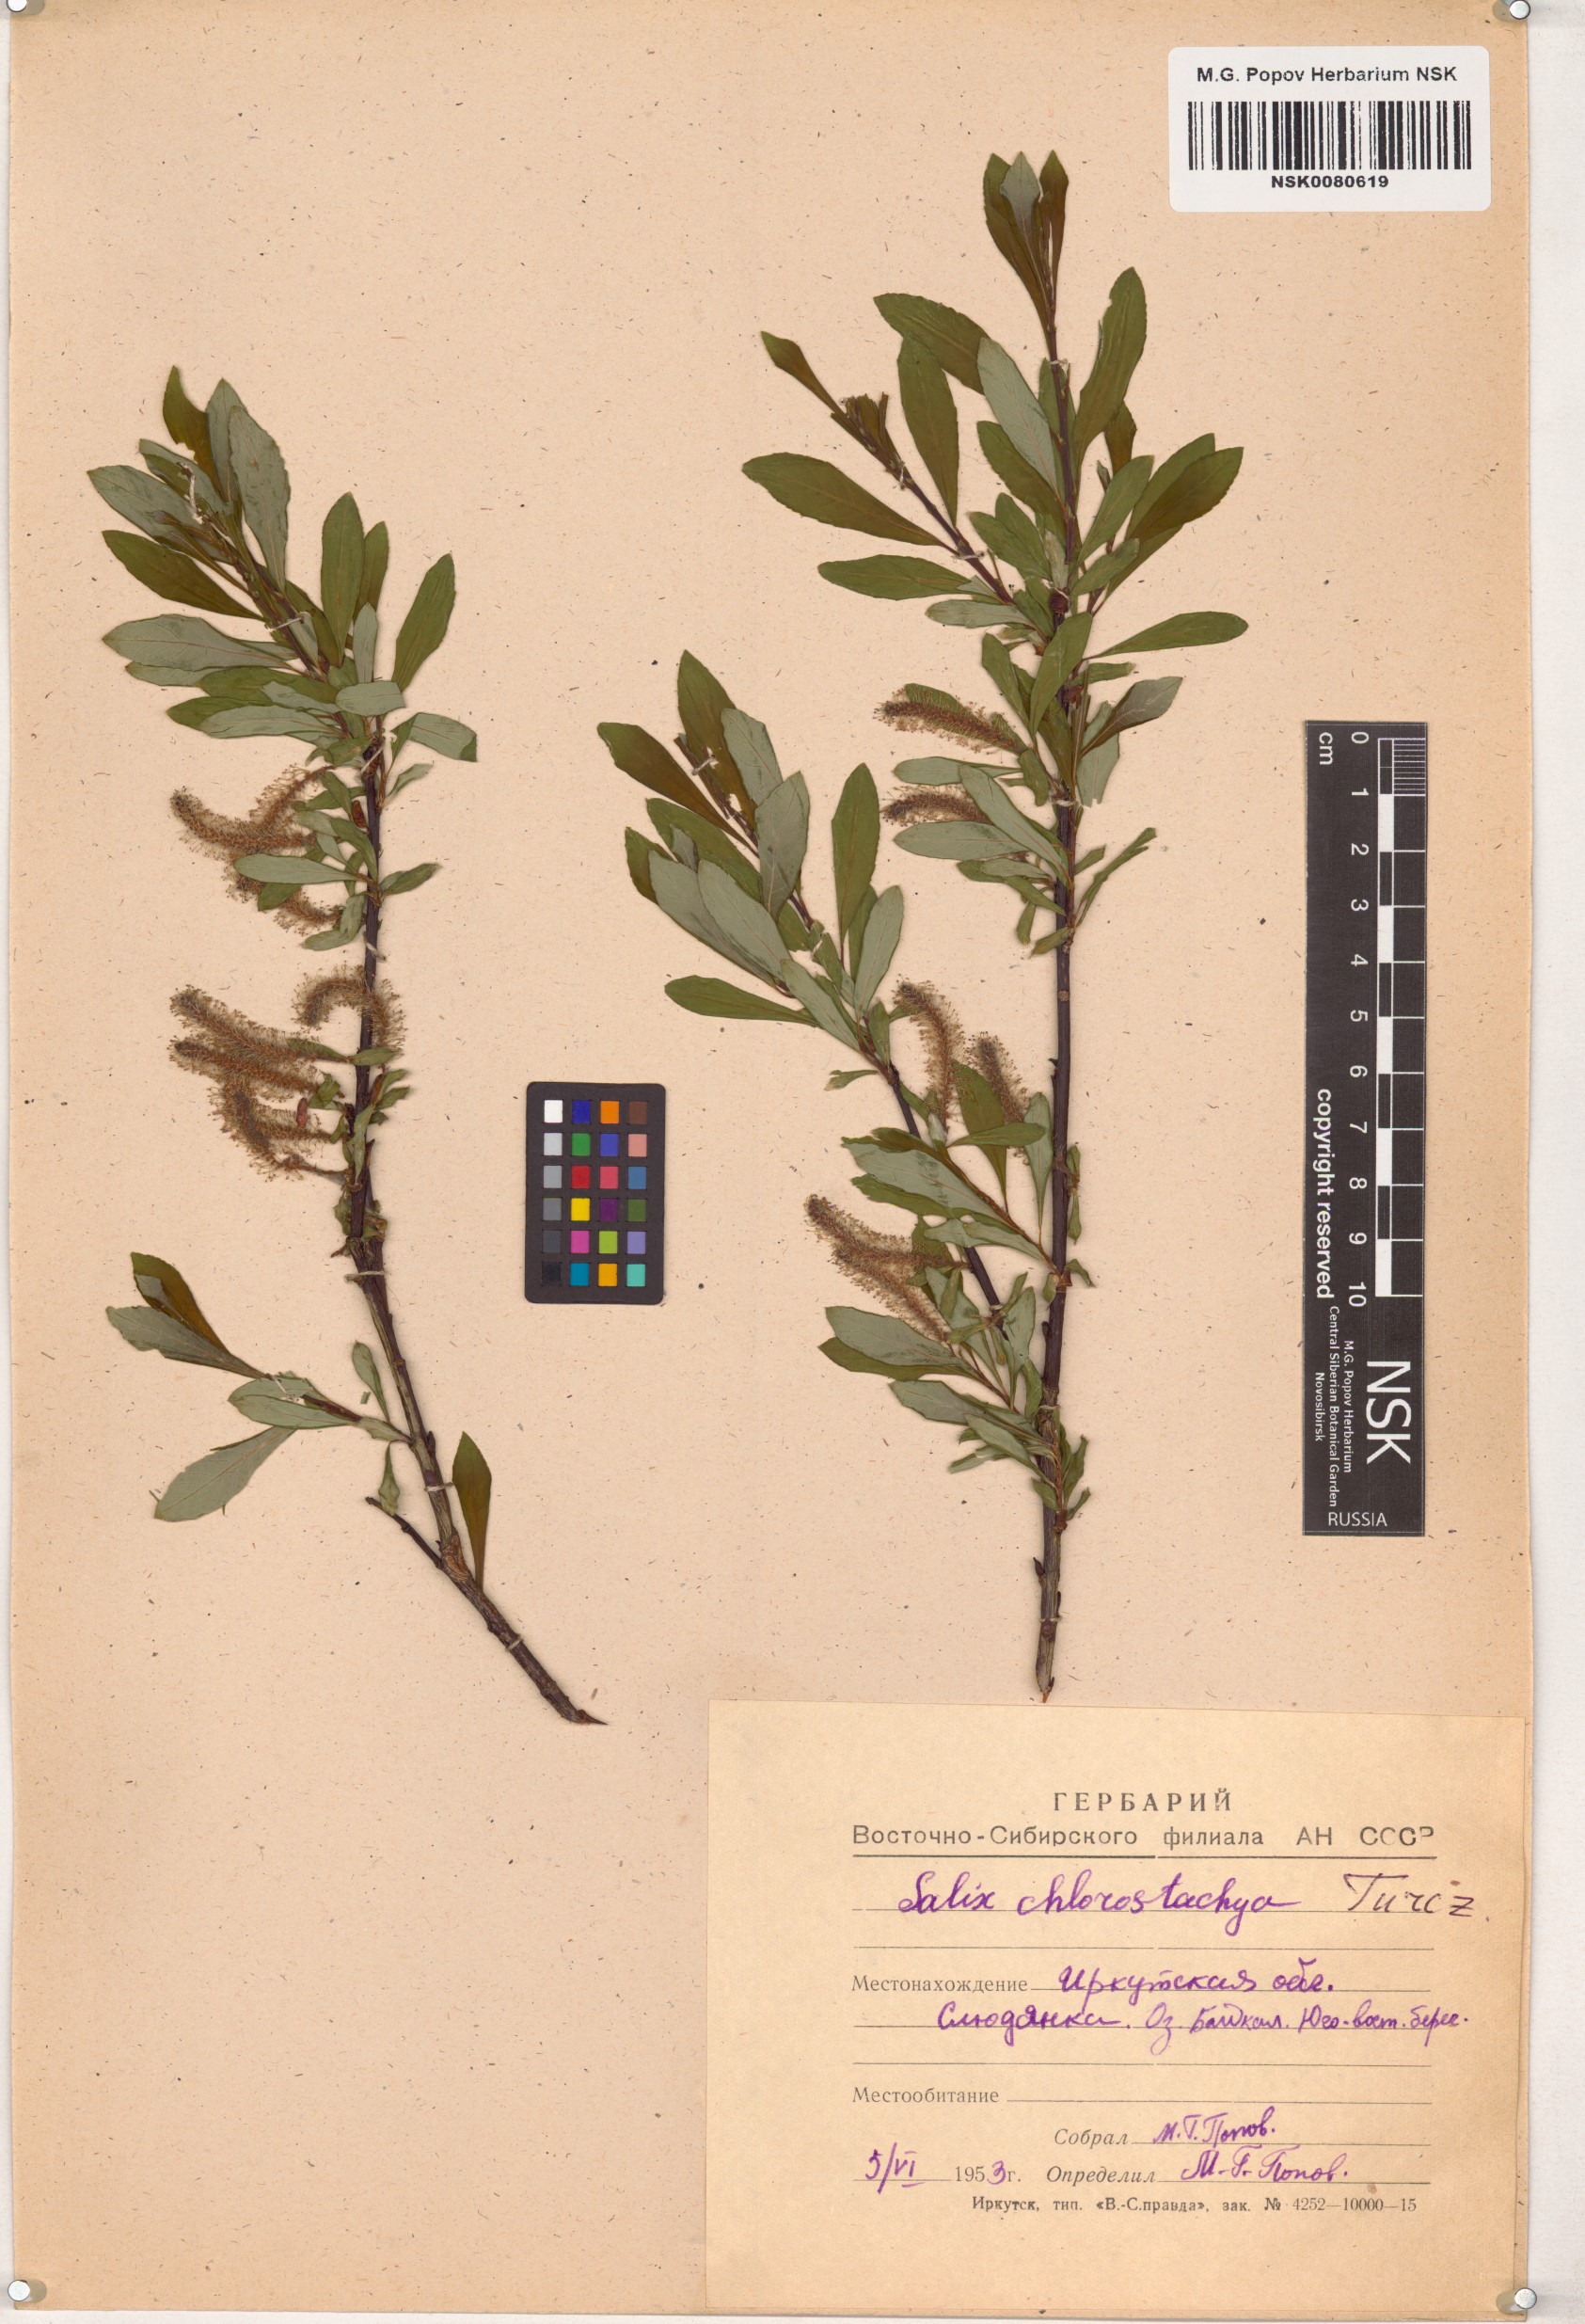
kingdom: Plantae
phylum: Tracheophyta
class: Magnoliopsida
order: Malpighiales
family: Salicaceae
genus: Salix
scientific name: Salix rhamnifolia
